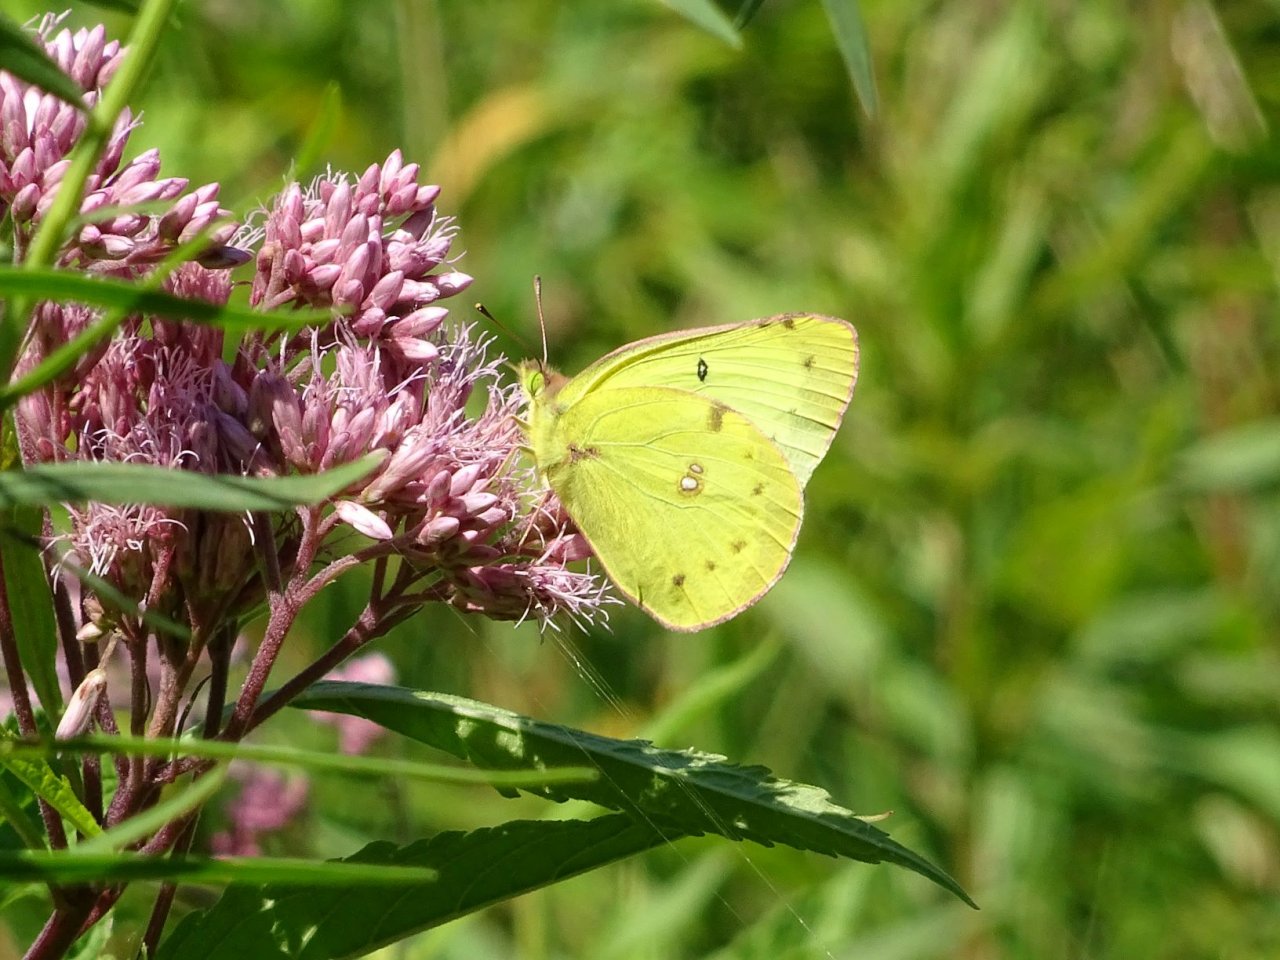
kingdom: Animalia
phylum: Arthropoda
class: Insecta
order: Lepidoptera
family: Pieridae
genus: Colias
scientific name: Colias philodice
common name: Clouded Sulphur
